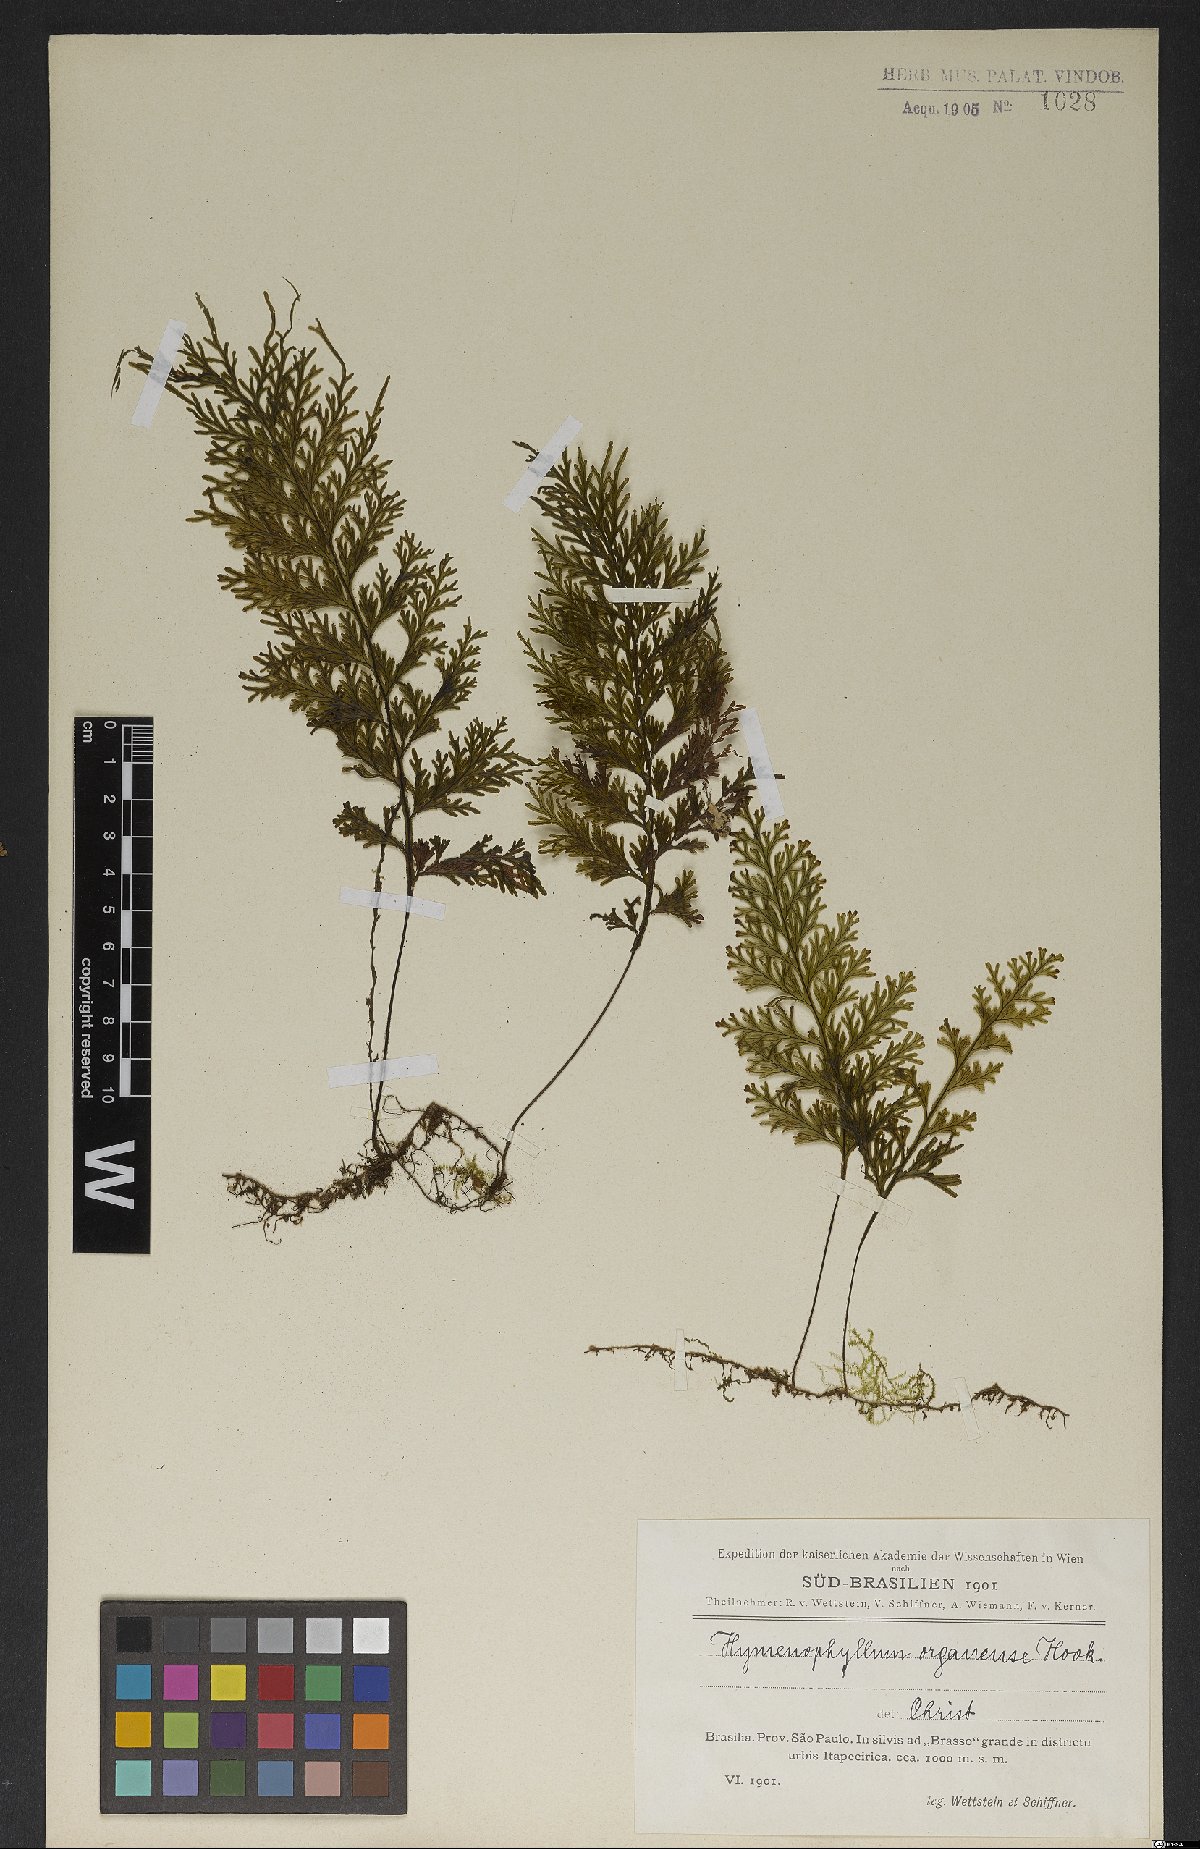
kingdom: Plantae
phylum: Tracheophyta
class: Polypodiopsida
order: Hymenophyllales
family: Hymenophyllaceae
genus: Hymenophyllum
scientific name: Hymenophyllum microcarpum
